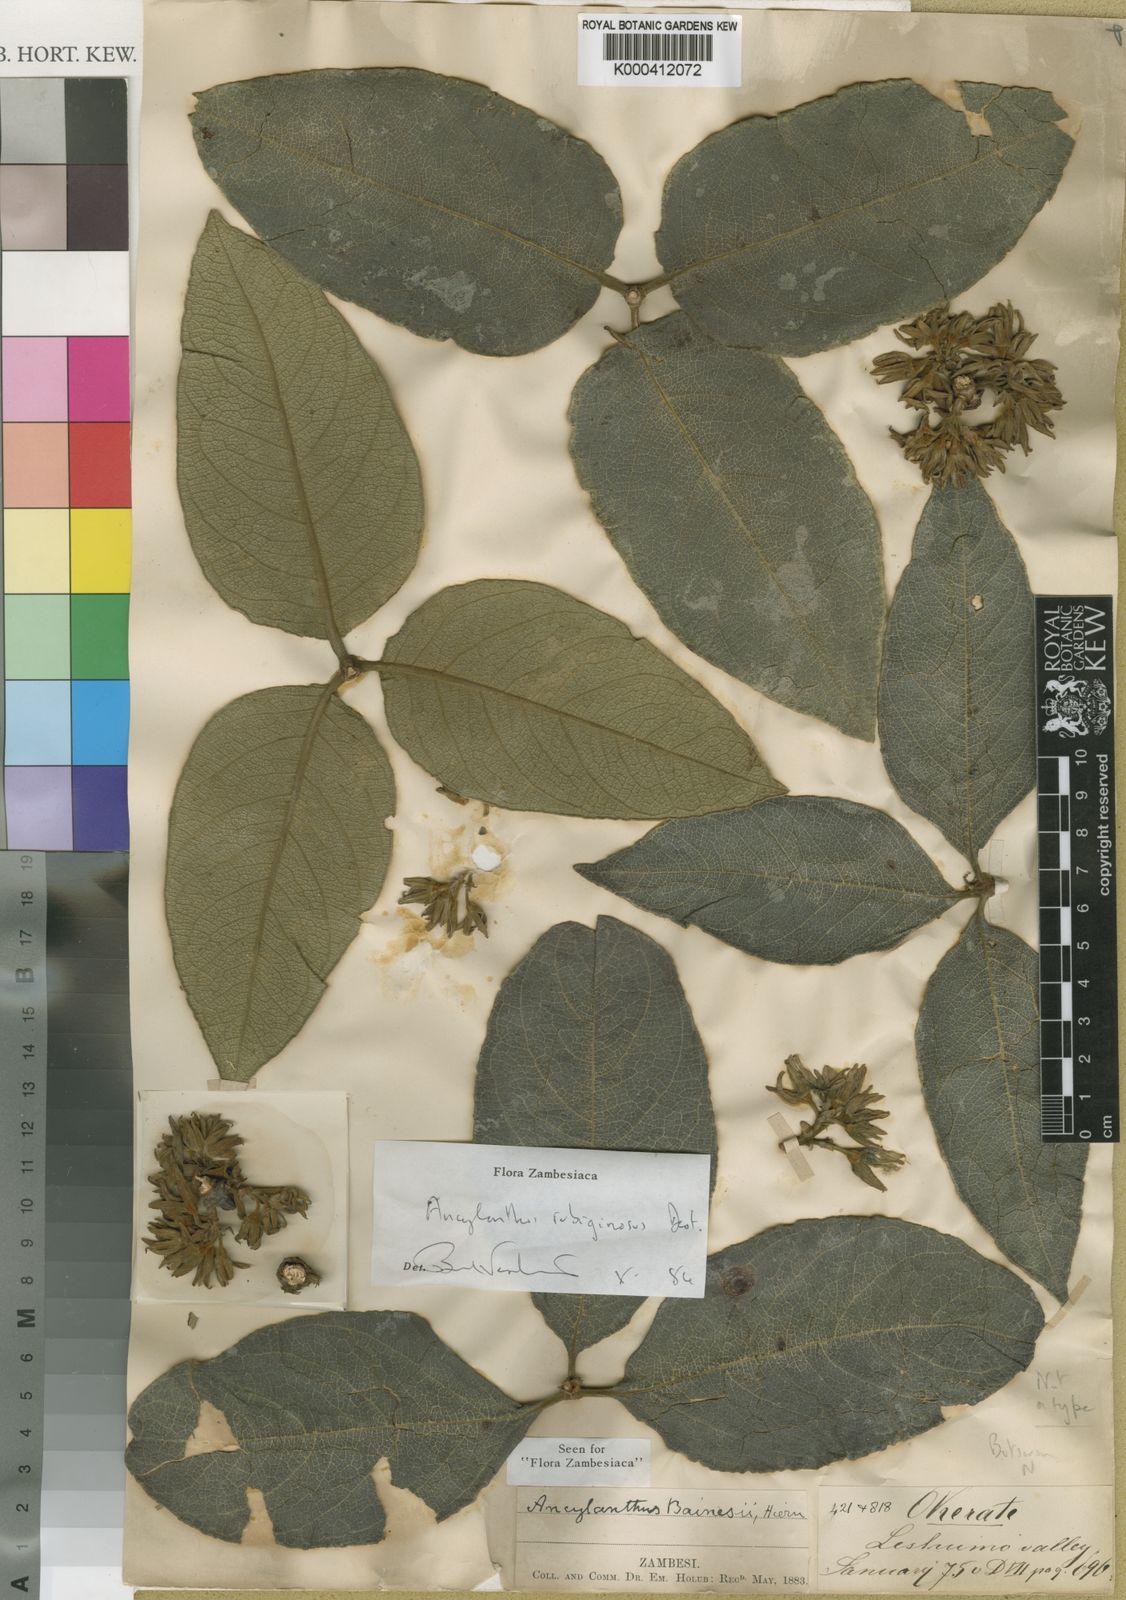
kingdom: Plantae
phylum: Tracheophyta
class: Magnoliopsida
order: Gentianales
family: Rubiaceae
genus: Vangueria
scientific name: Vangueria ferruginea
